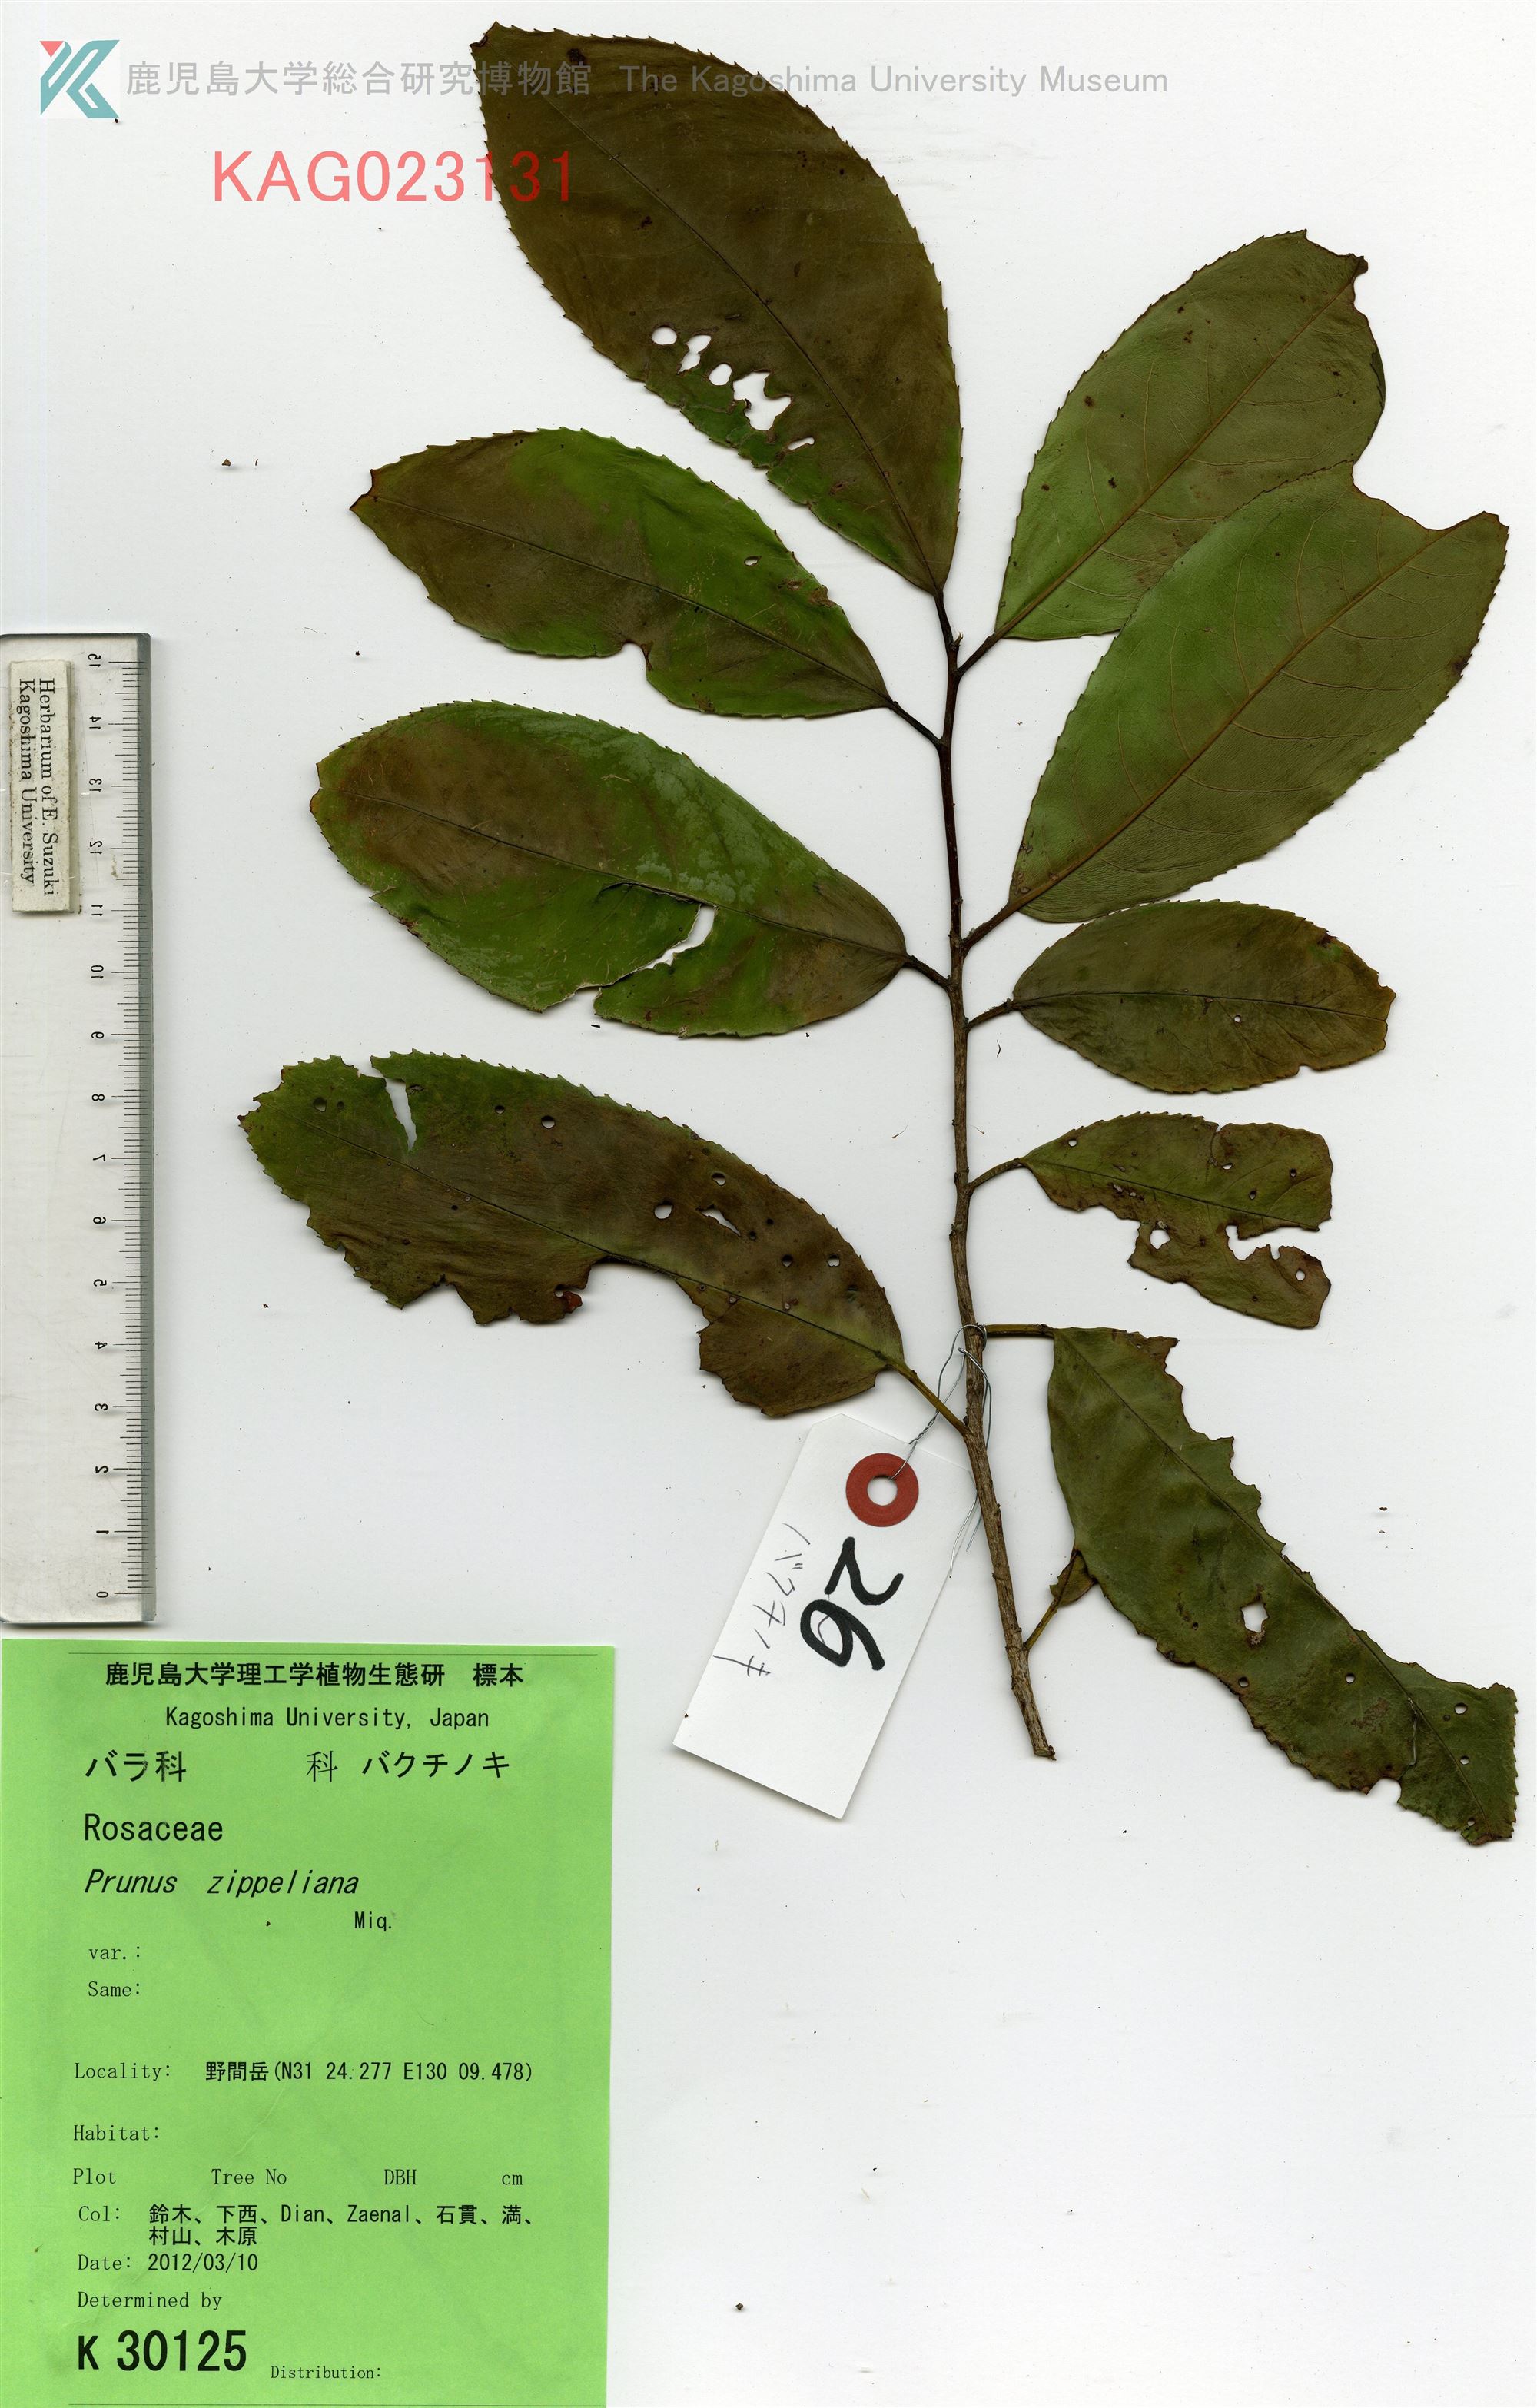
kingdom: Plantae
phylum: Tracheophyta
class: Magnoliopsida
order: Rosales
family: Rosaceae
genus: Prunus
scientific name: Prunus zippeliana
